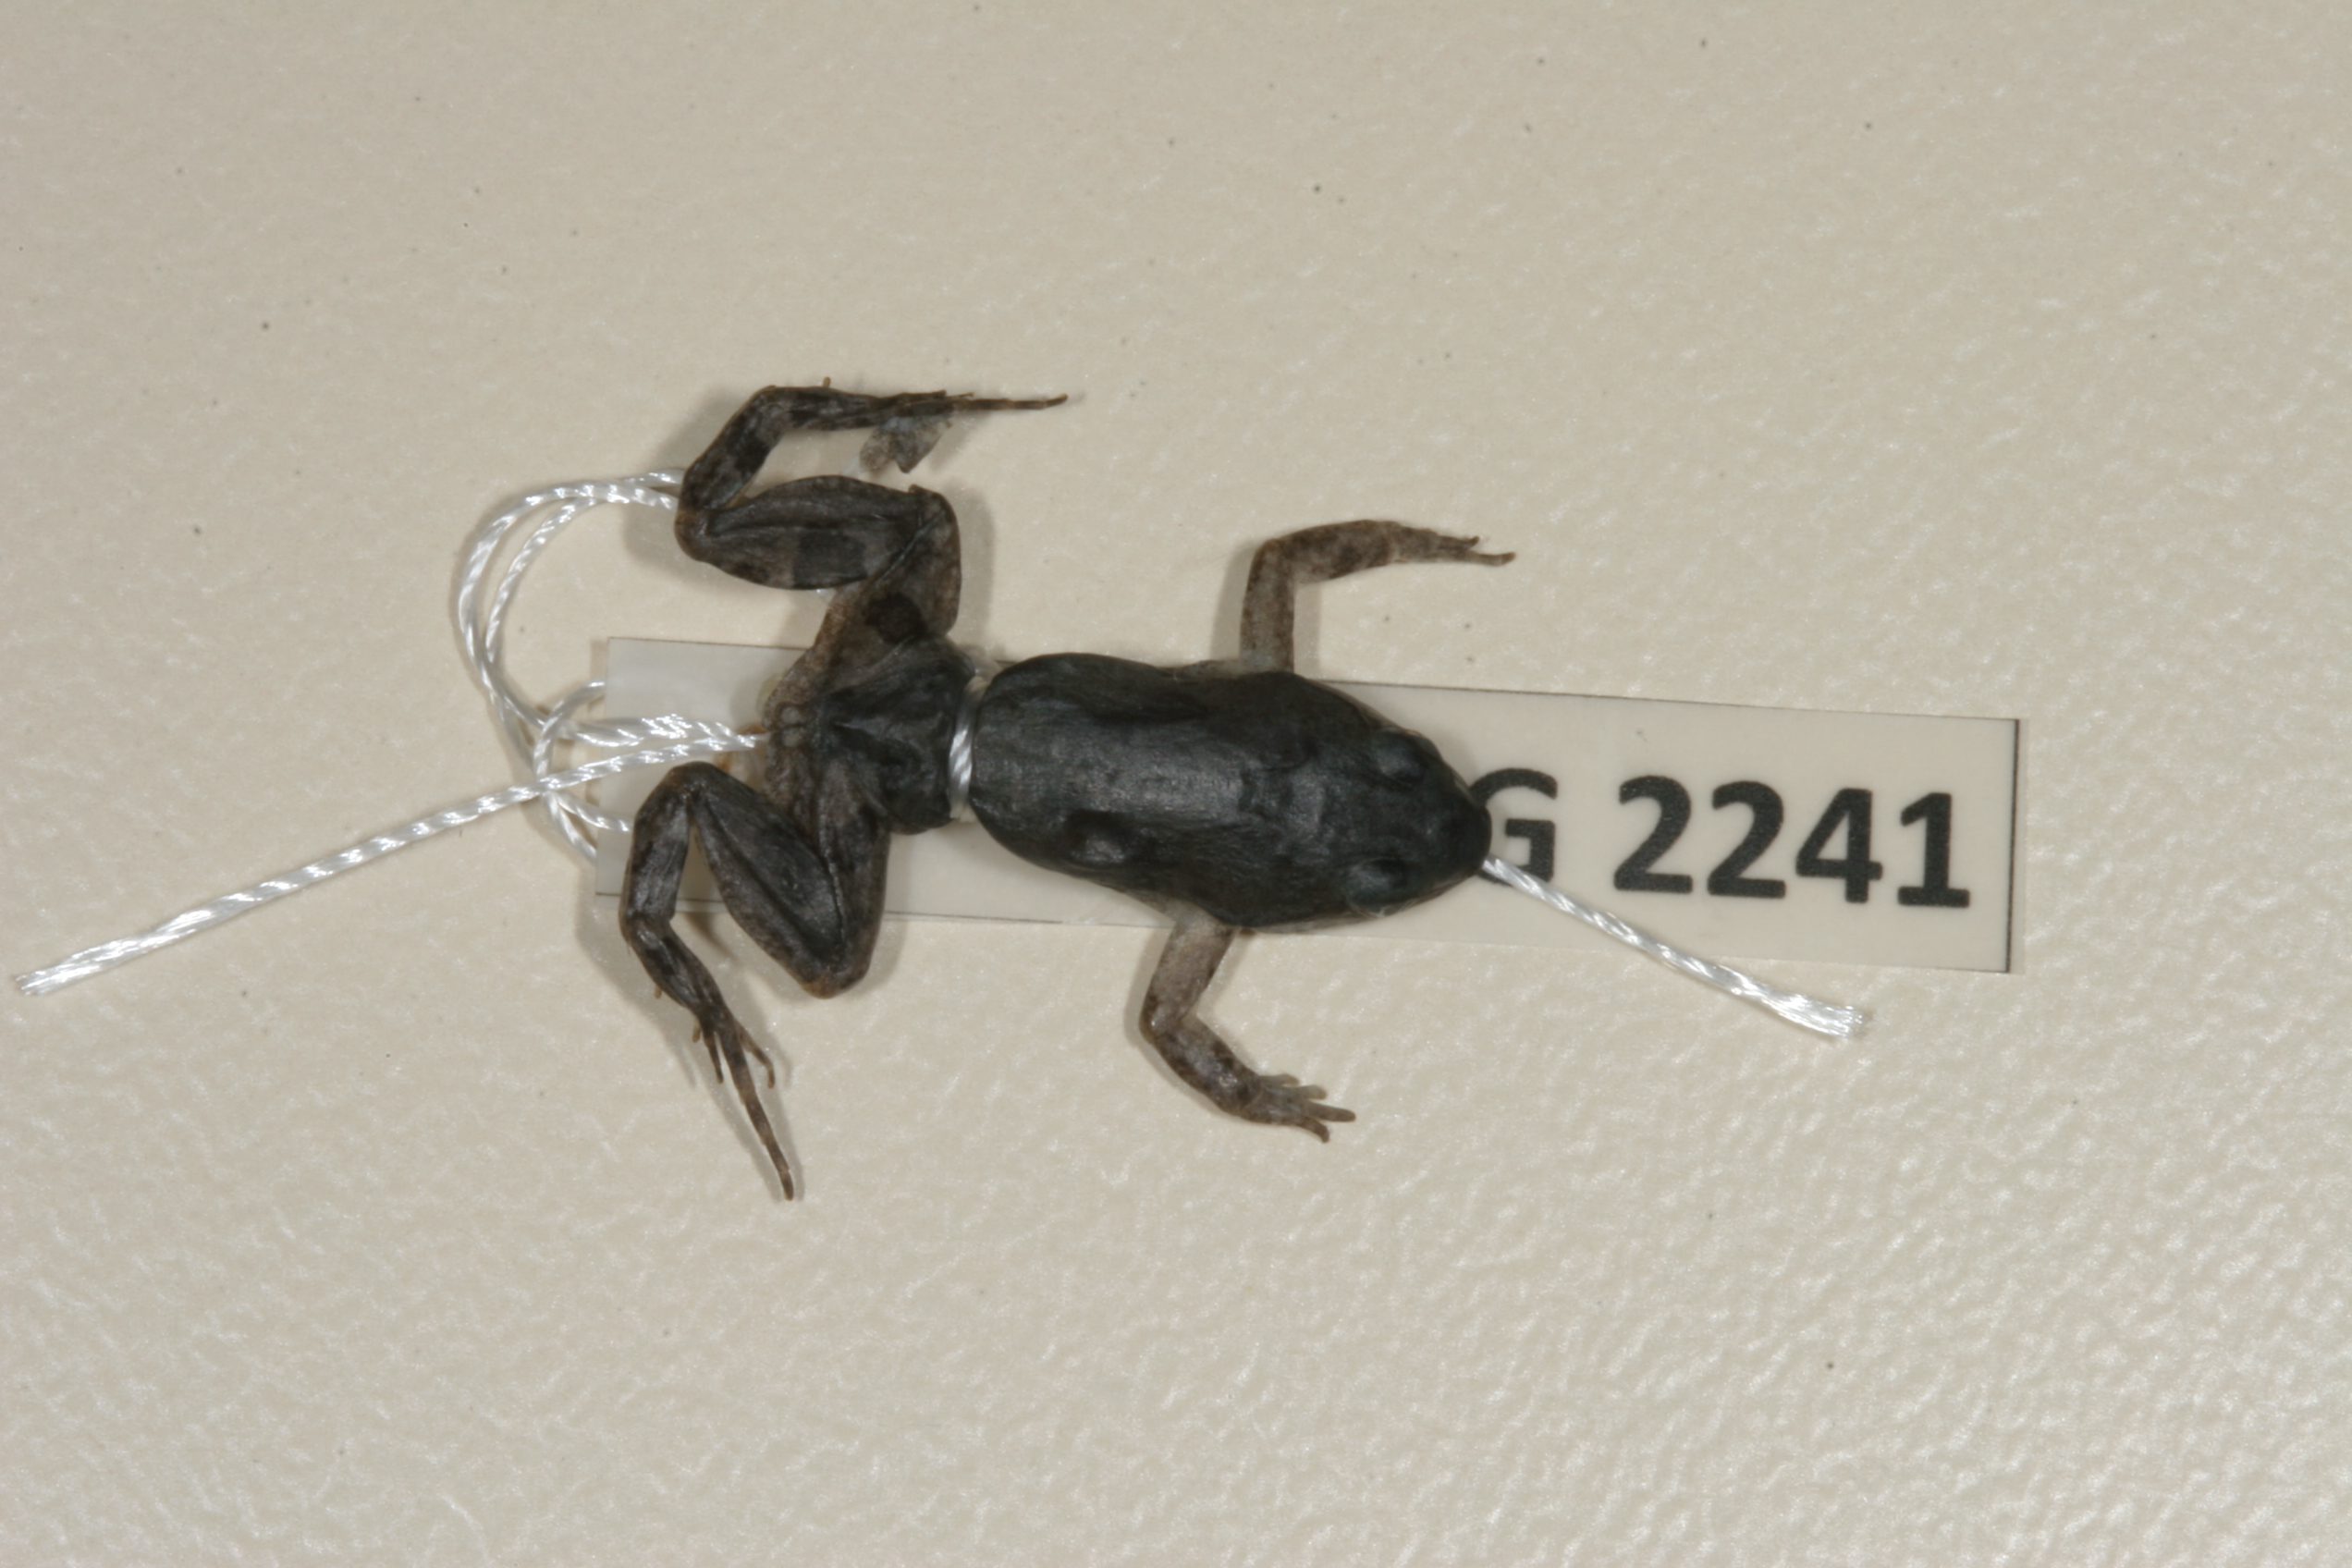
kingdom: Animalia
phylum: Chordata
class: Amphibia
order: Anura
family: Pyxicephalidae
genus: Cacosternum
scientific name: Cacosternum boettgeri
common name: Boettger's frog
